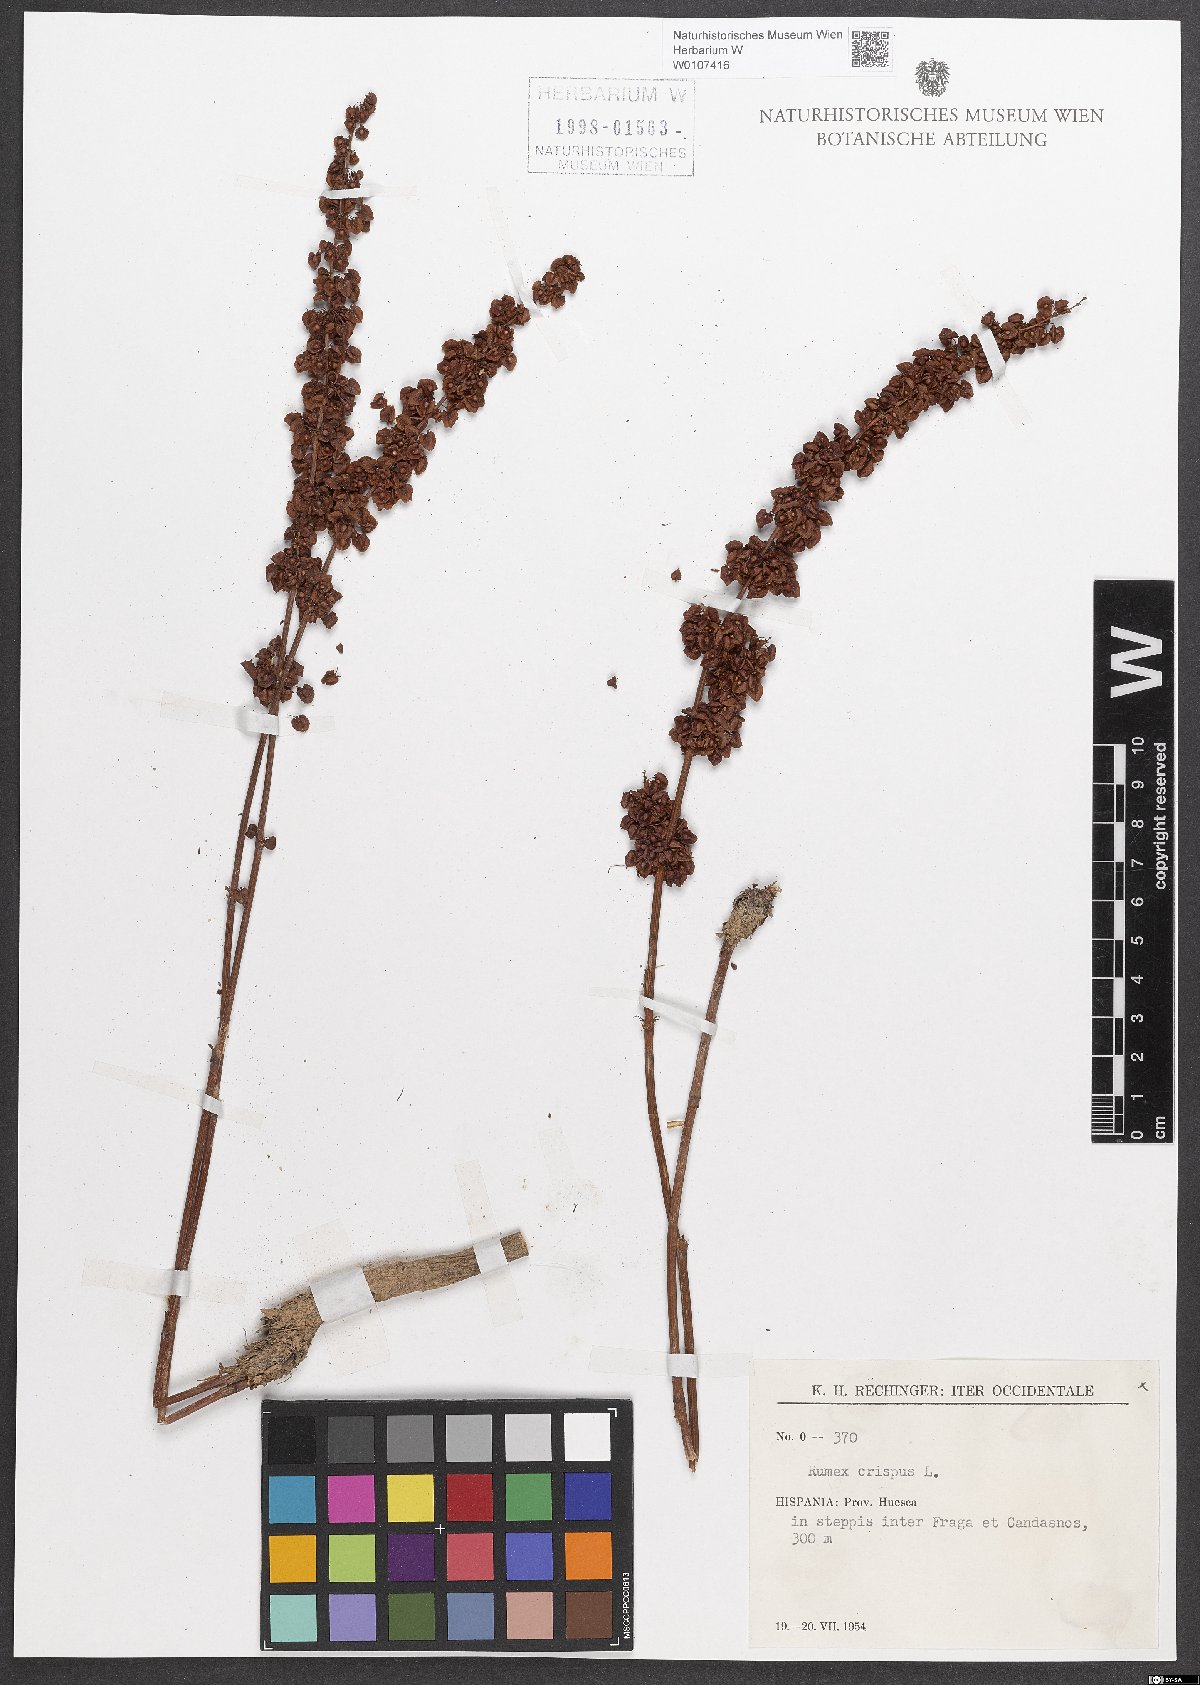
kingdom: Plantae
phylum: Tracheophyta
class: Magnoliopsida
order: Caryophyllales
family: Polygonaceae
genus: Rumex
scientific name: Rumex crispus
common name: Curled dock
